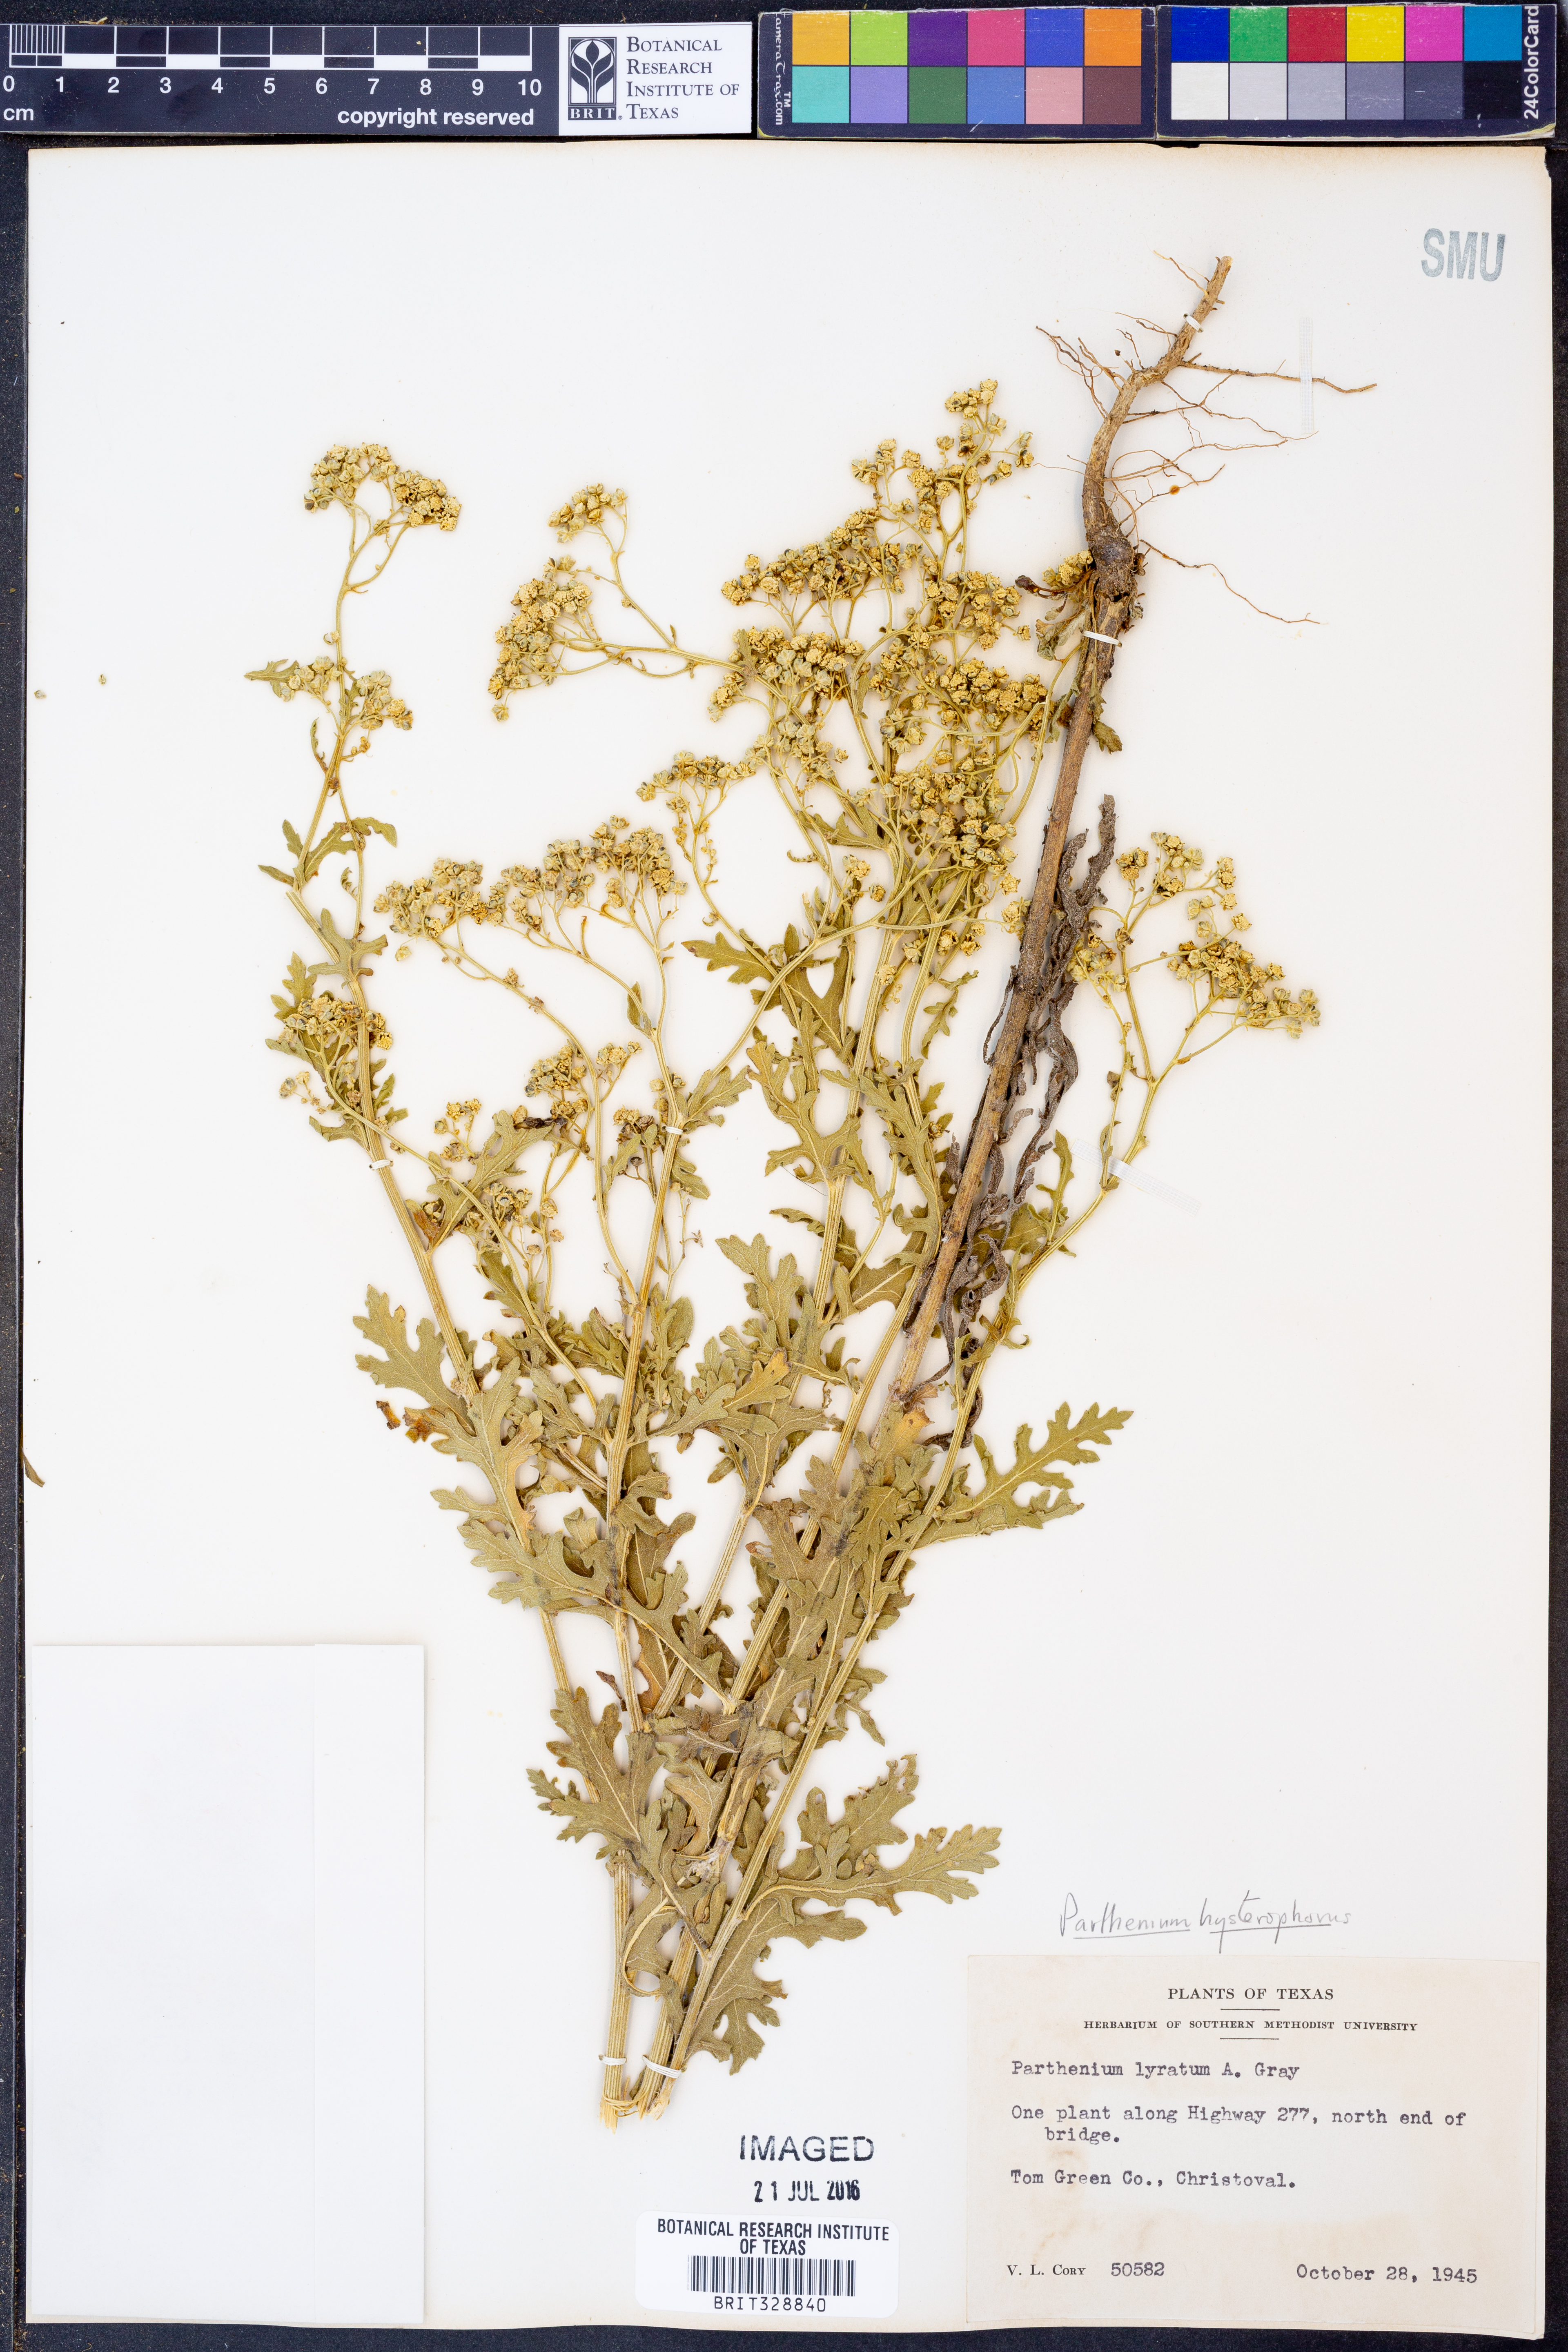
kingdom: Plantae
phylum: Tracheophyta
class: Magnoliopsida
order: Asterales
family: Asteraceae
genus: Parthenium
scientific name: Parthenium hysterophorus
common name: Santa maria feverfew
